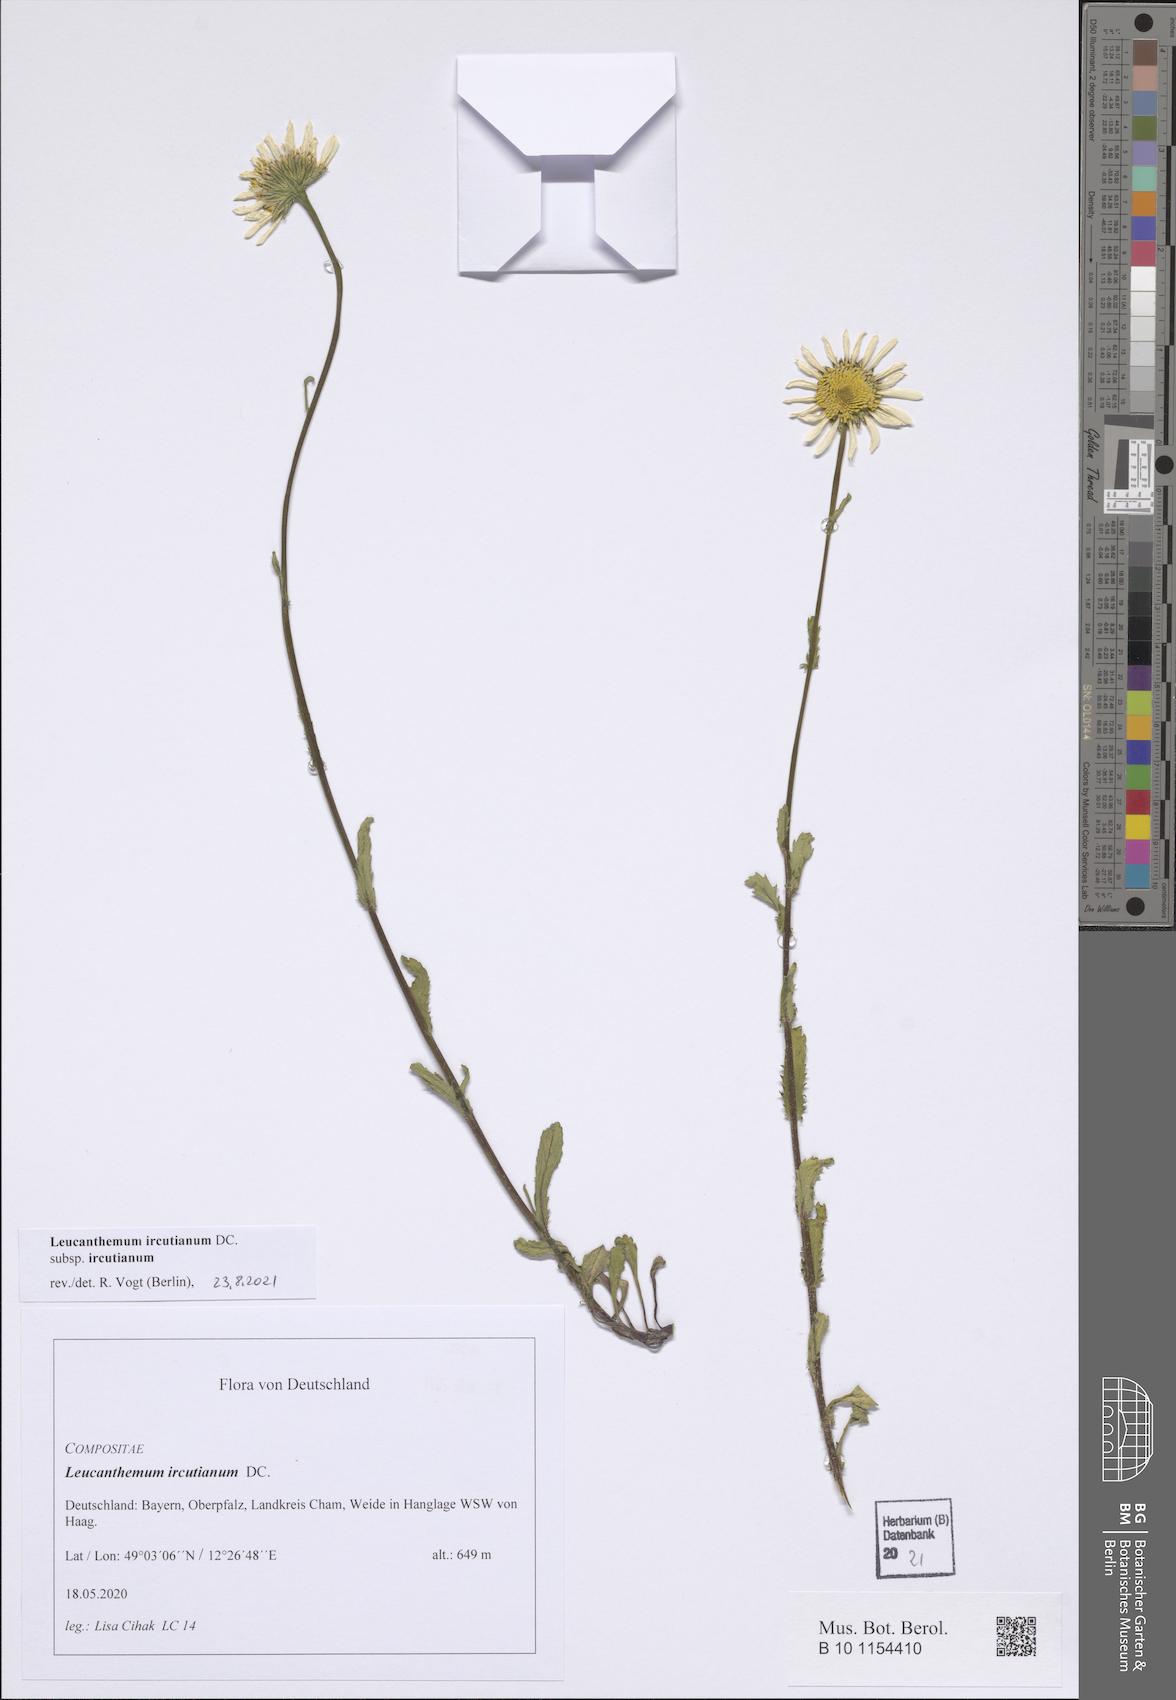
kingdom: Plantae
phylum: Tracheophyta
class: Magnoliopsida
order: Asterales
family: Asteraceae
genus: Leucanthemum
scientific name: Leucanthemum ircutianum
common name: Daisy
